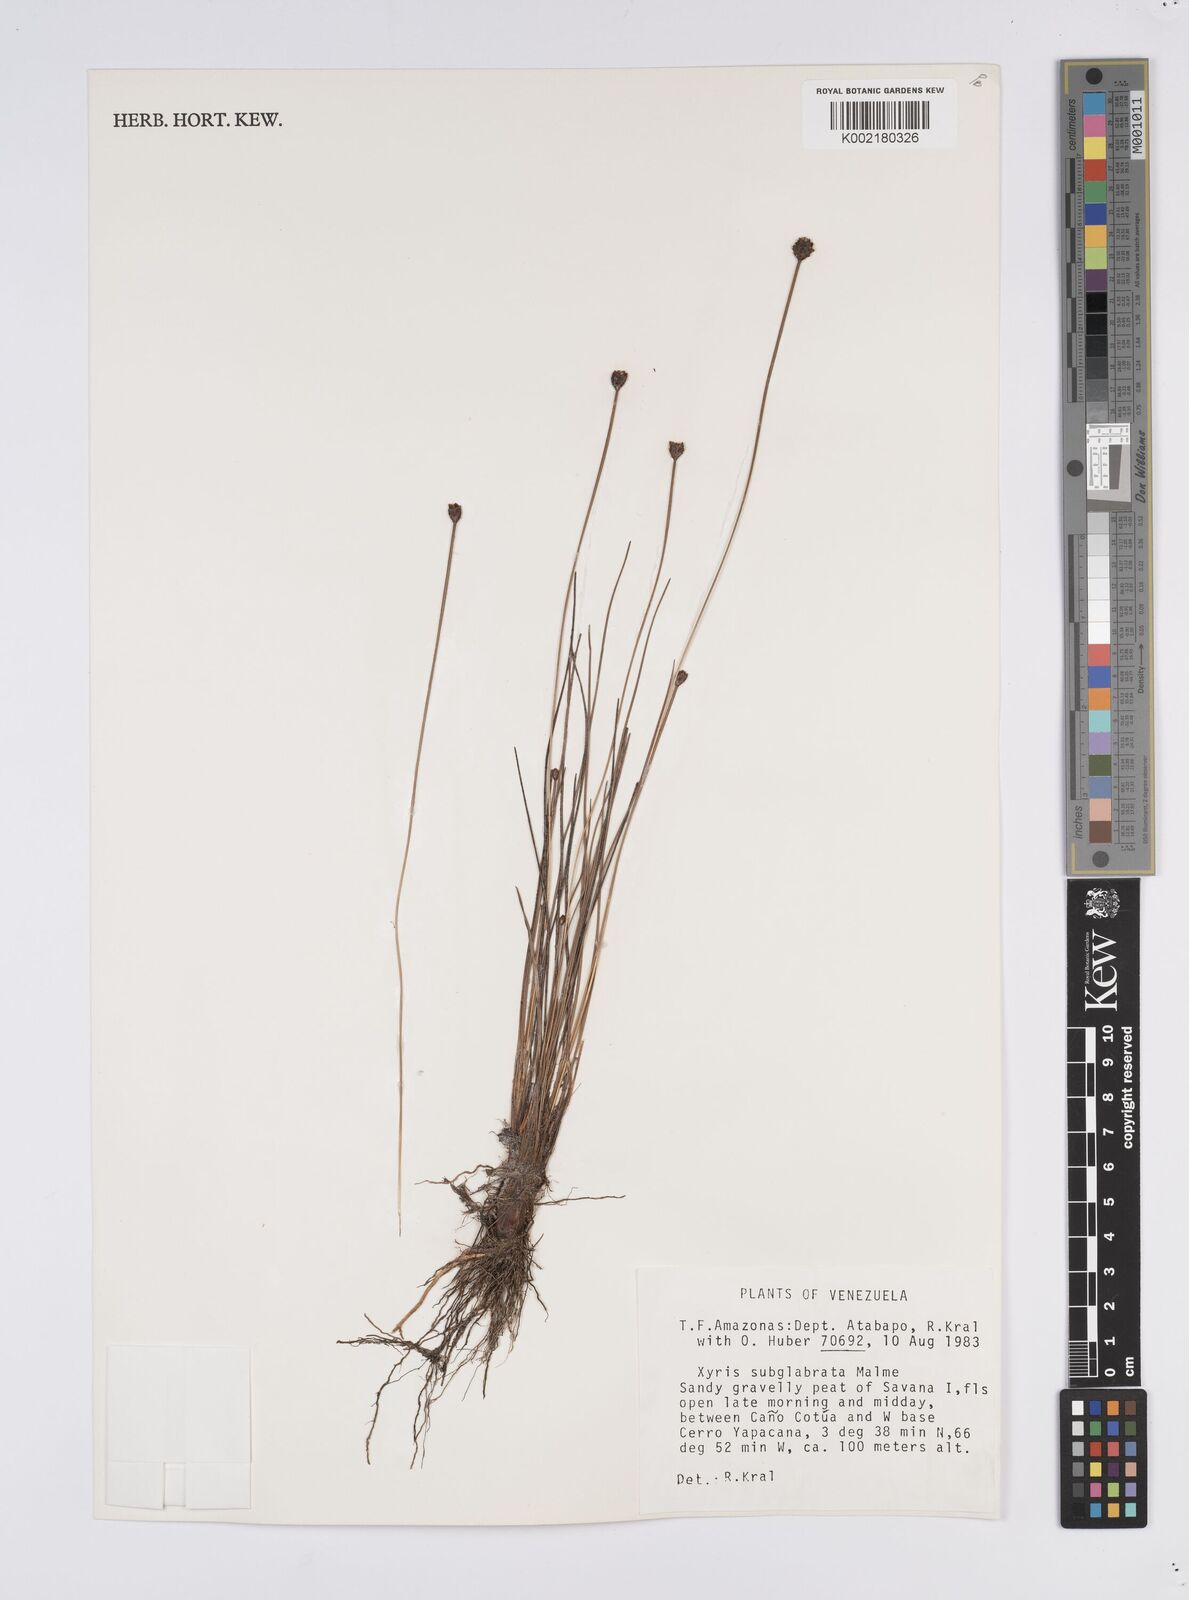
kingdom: Plantae
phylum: Tracheophyta
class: Liliopsida
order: Poales
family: Xyridaceae
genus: Xyris
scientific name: Xyris subglabrata
